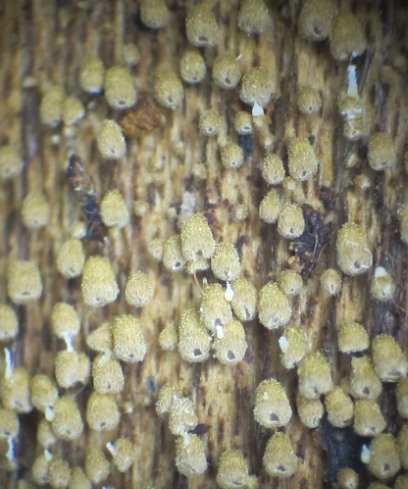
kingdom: Fungi
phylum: Basidiomycota
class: Agaricomycetes
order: Agaricales
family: Niaceae
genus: Maireina
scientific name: Maireina ochracea
